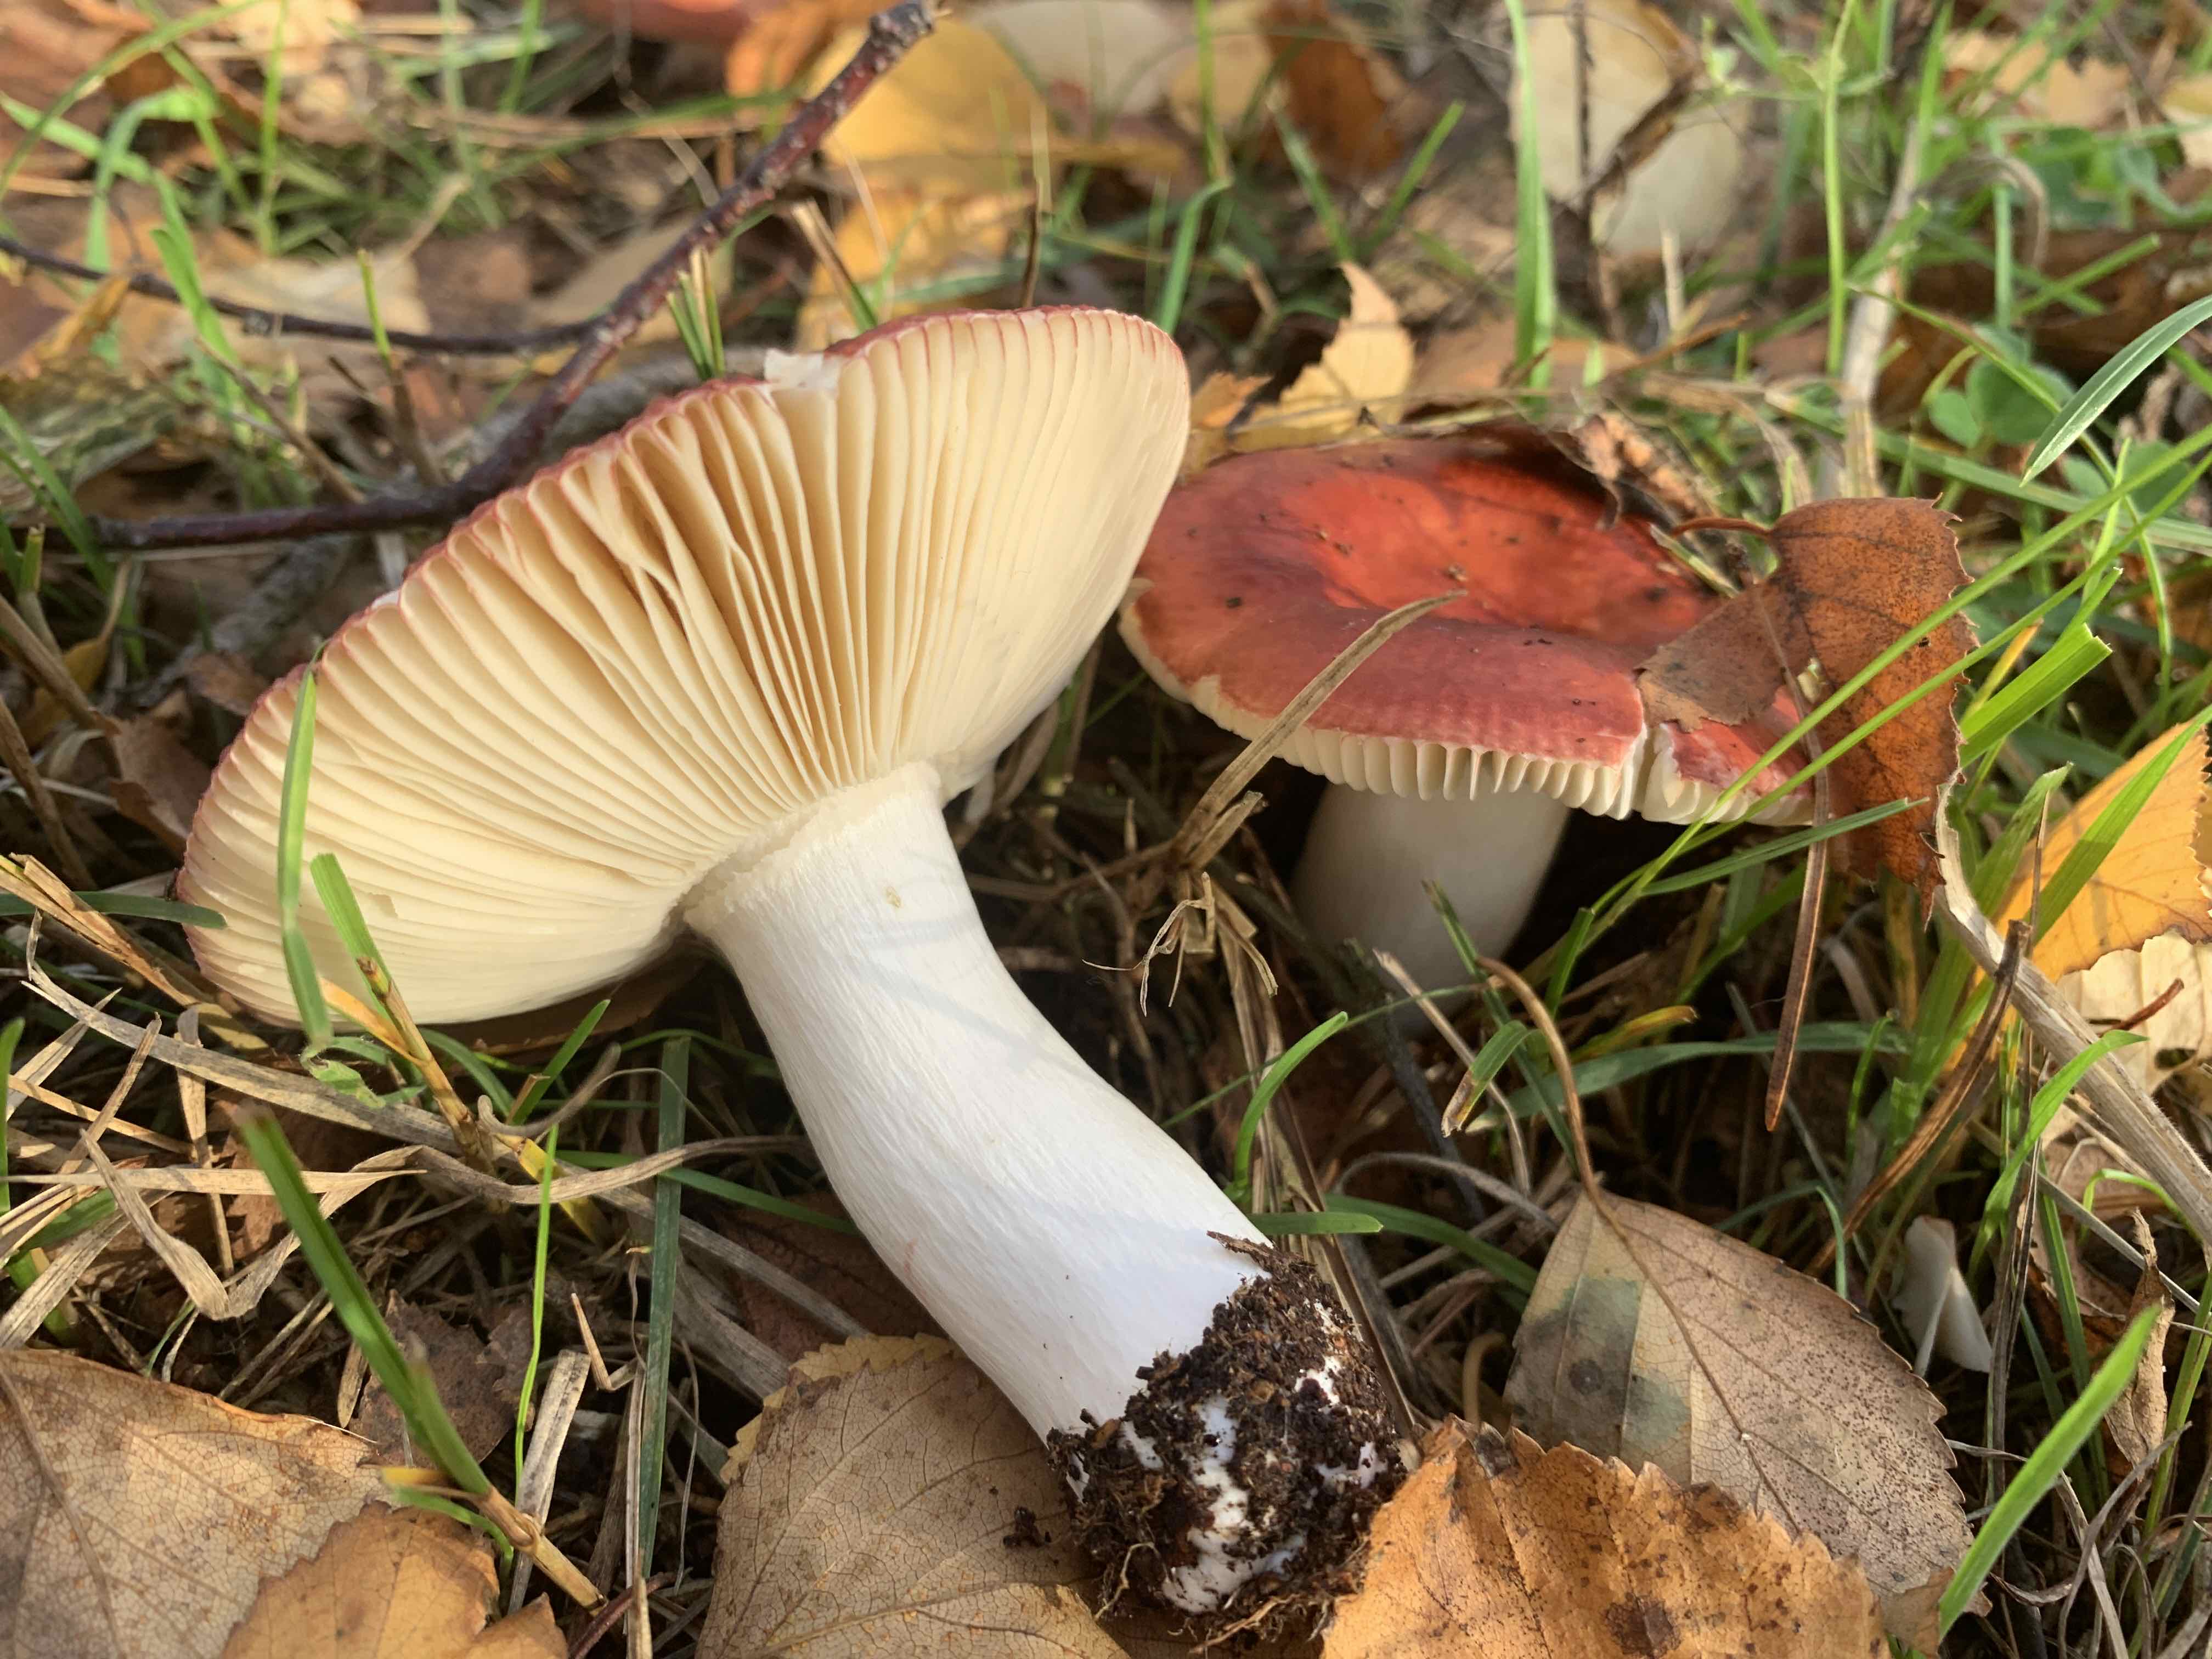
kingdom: Fungi
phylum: Basidiomycota
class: Agaricomycetes
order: Russulales
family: Russulaceae
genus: Russula
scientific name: Russula velenovskyi
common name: orangerød skørhat
